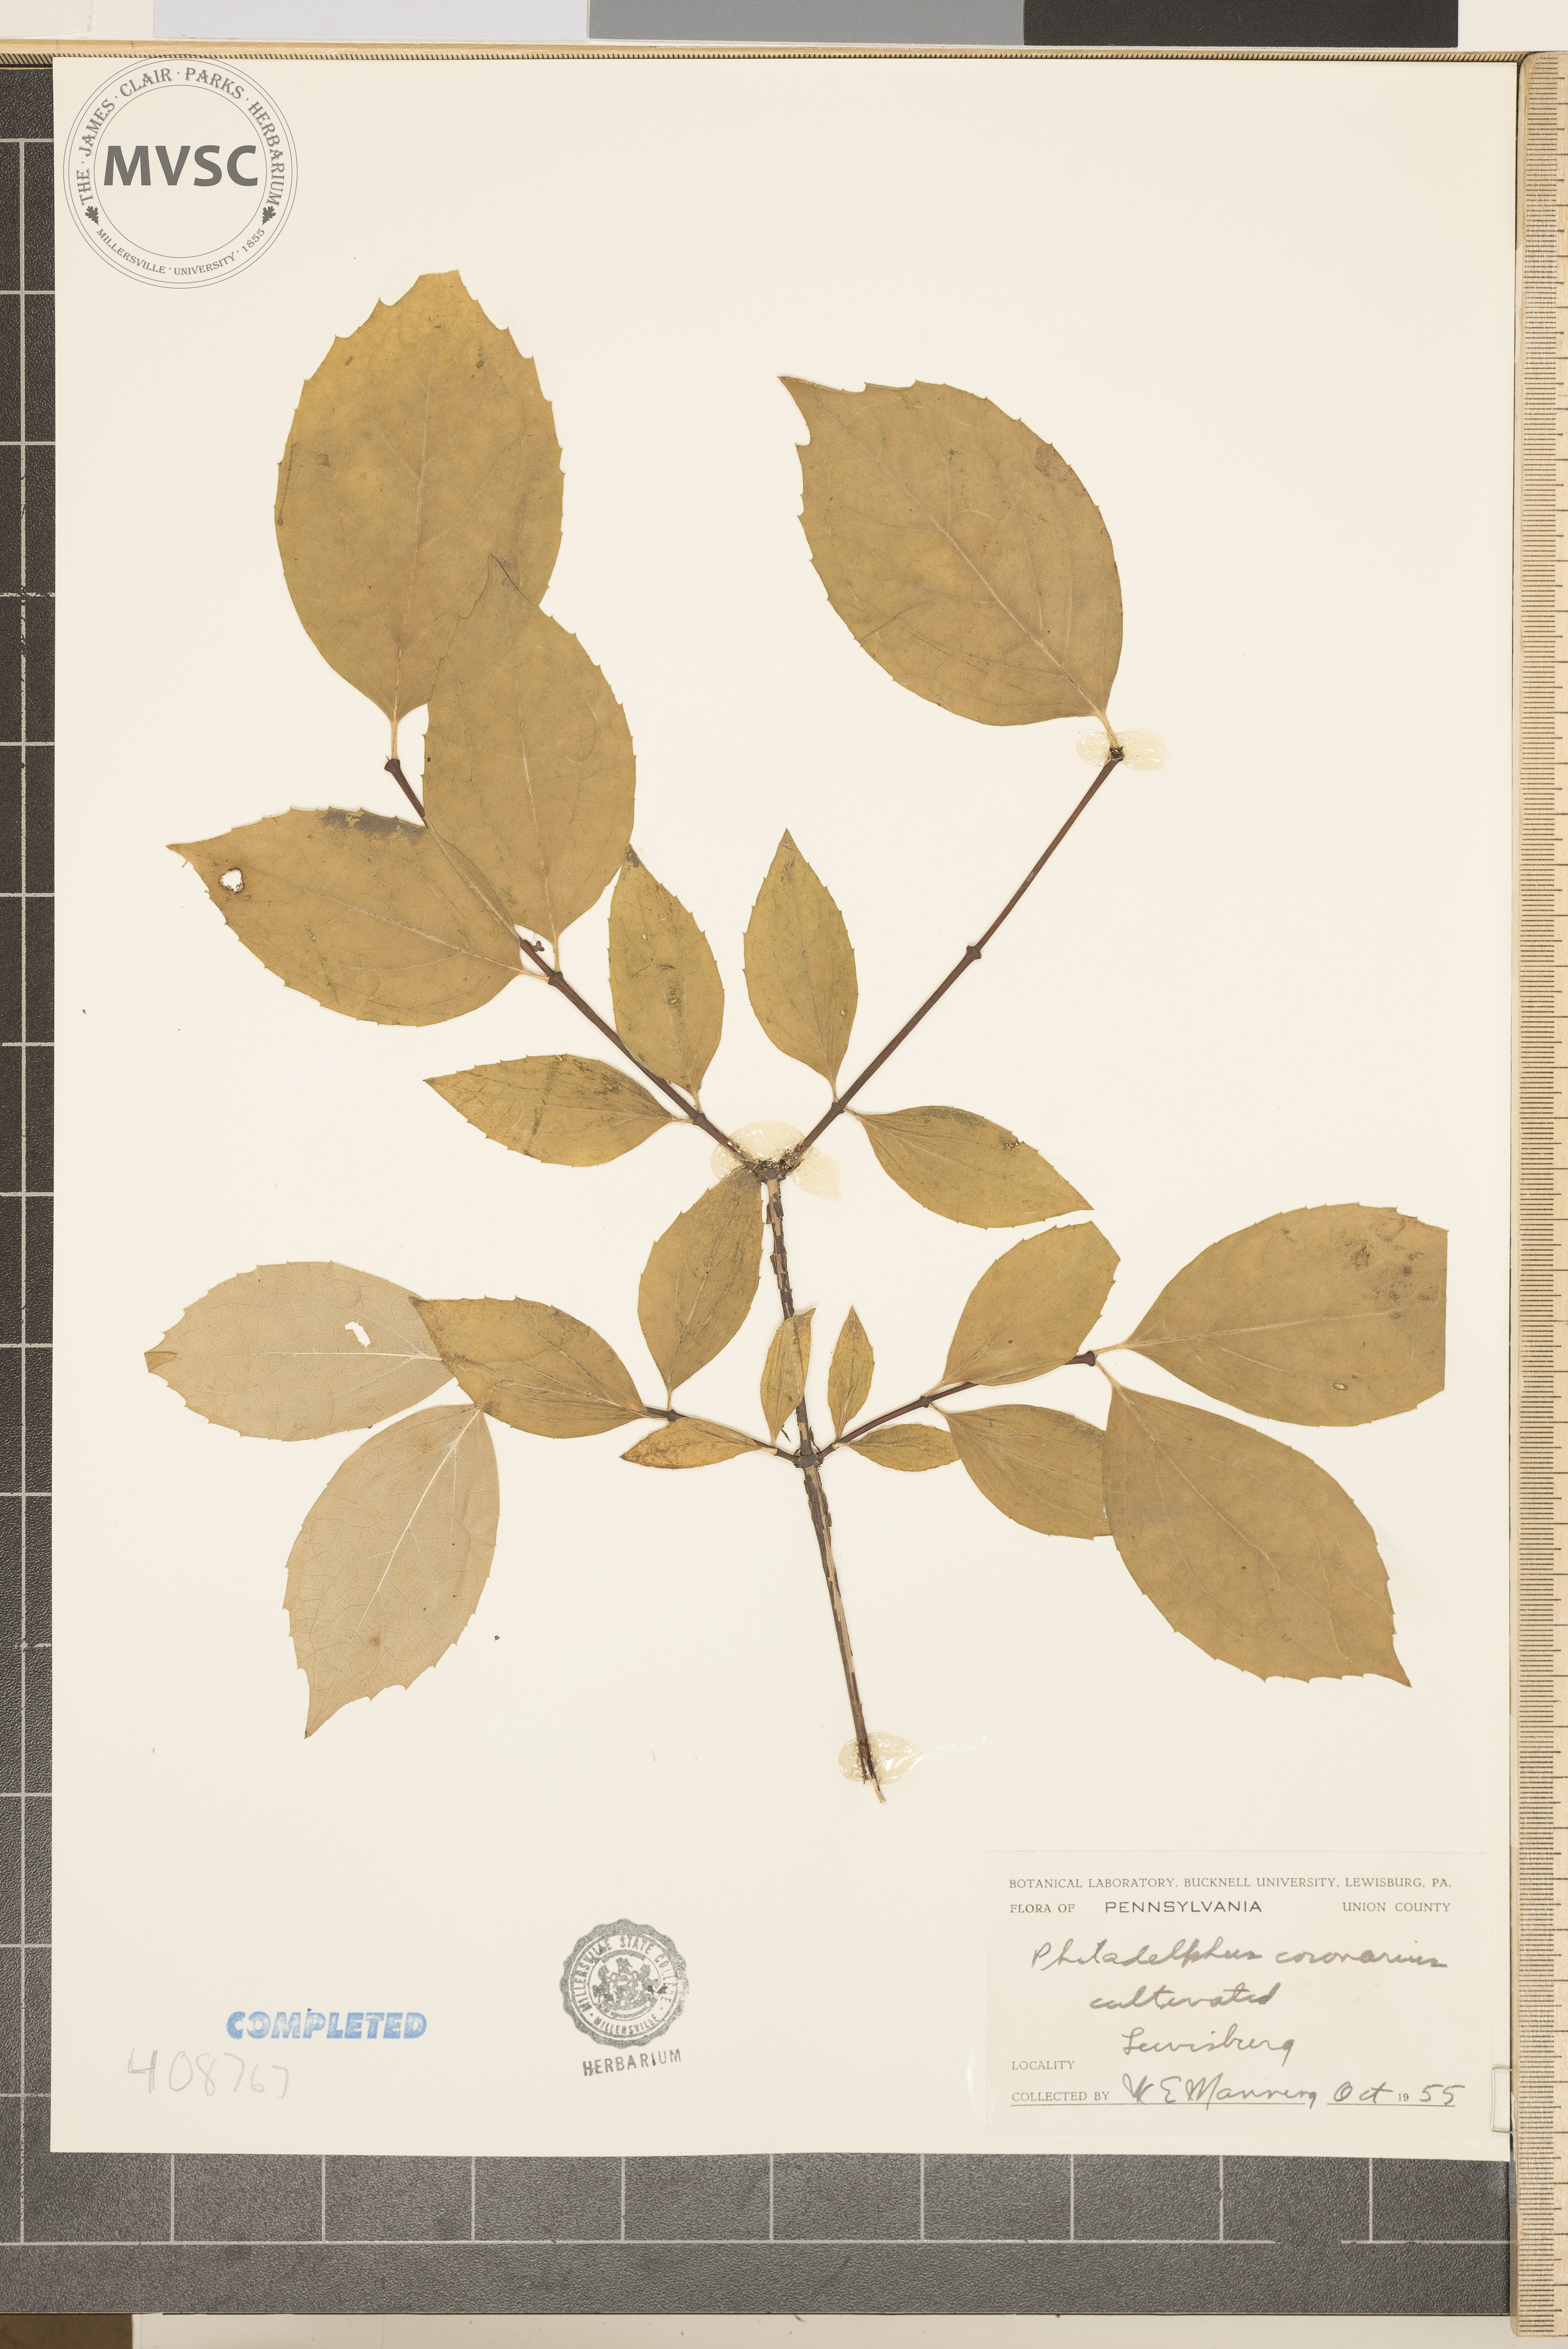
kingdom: Plantae
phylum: Tracheophyta
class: Magnoliopsida
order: Cornales
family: Hydrangeaceae
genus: Philadelphus
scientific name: Philadelphus coronarius
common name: Mock orange
